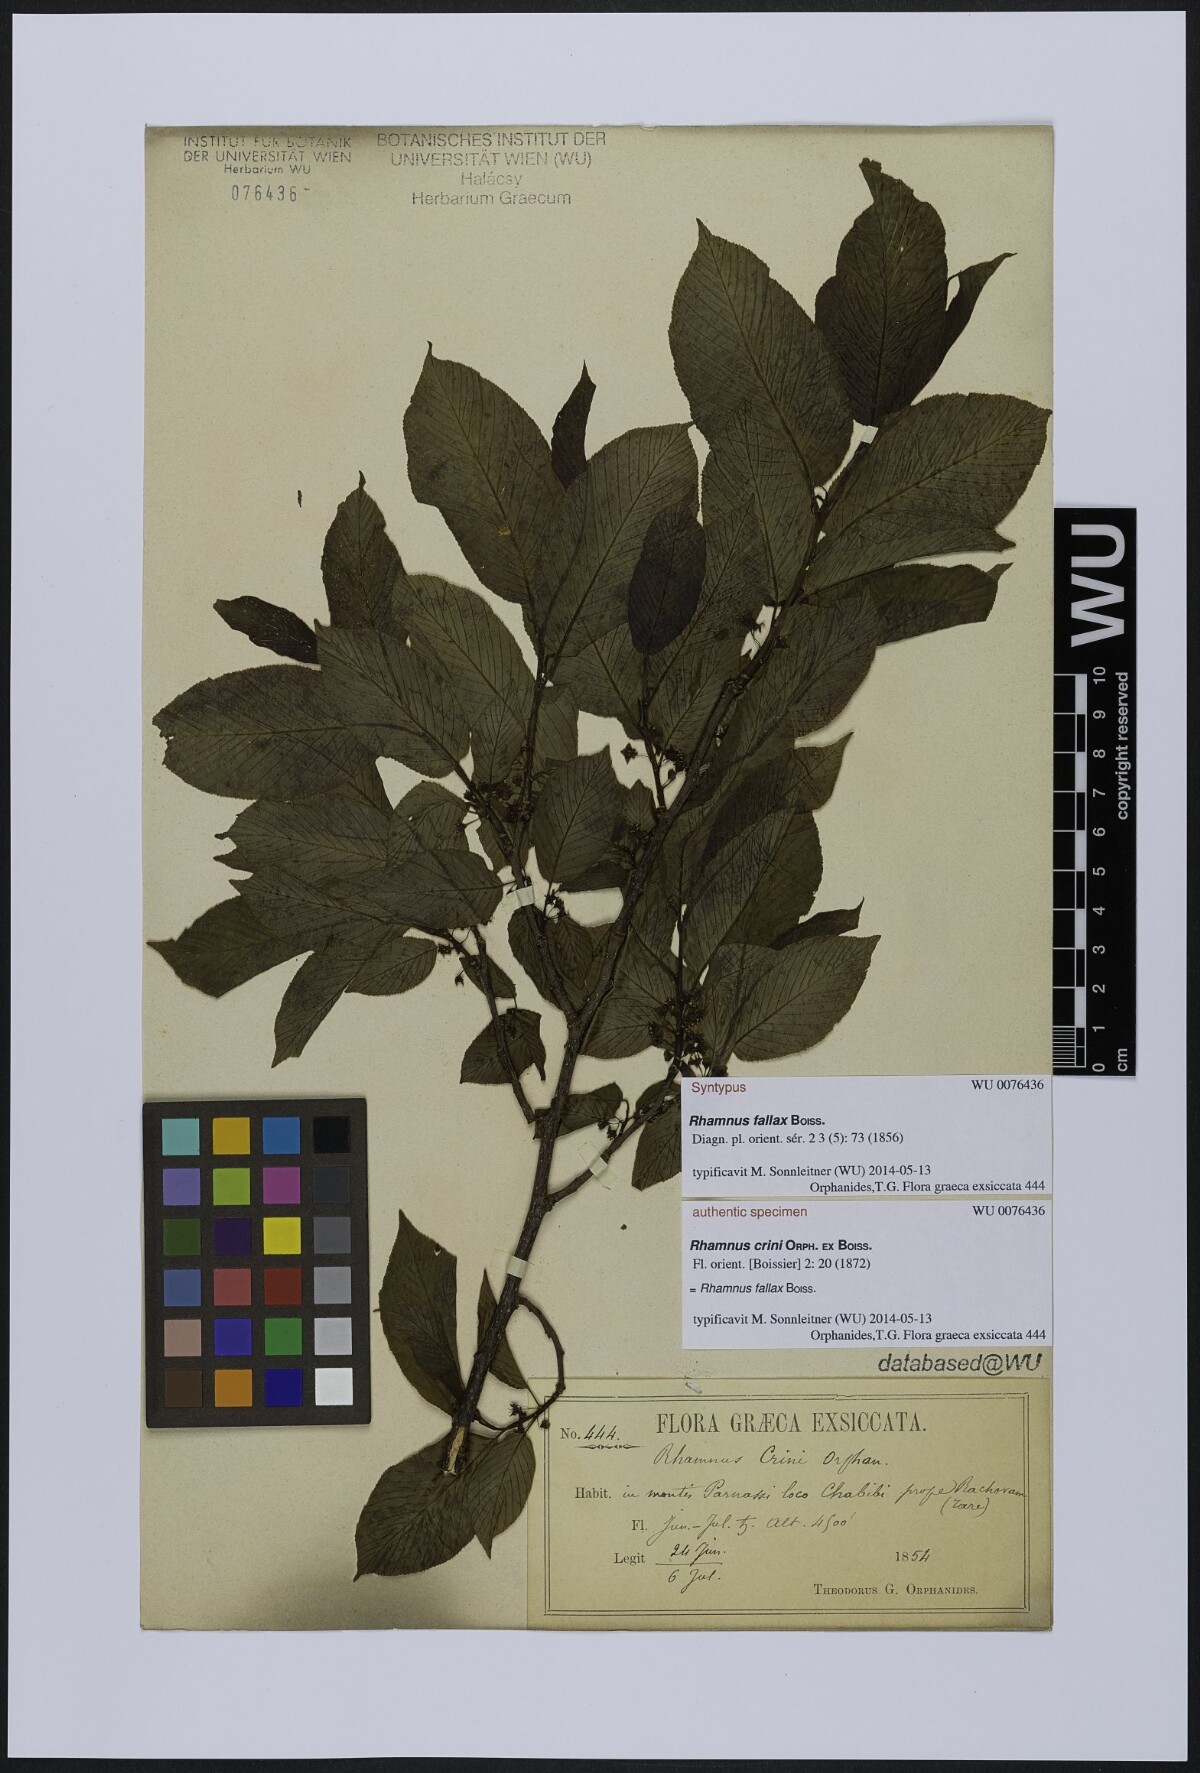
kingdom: Plantae
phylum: Tracheophyta
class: Magnoliopsida
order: Rosales
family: Rhamnaceae
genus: Atadinus
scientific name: Atadinus fallax
